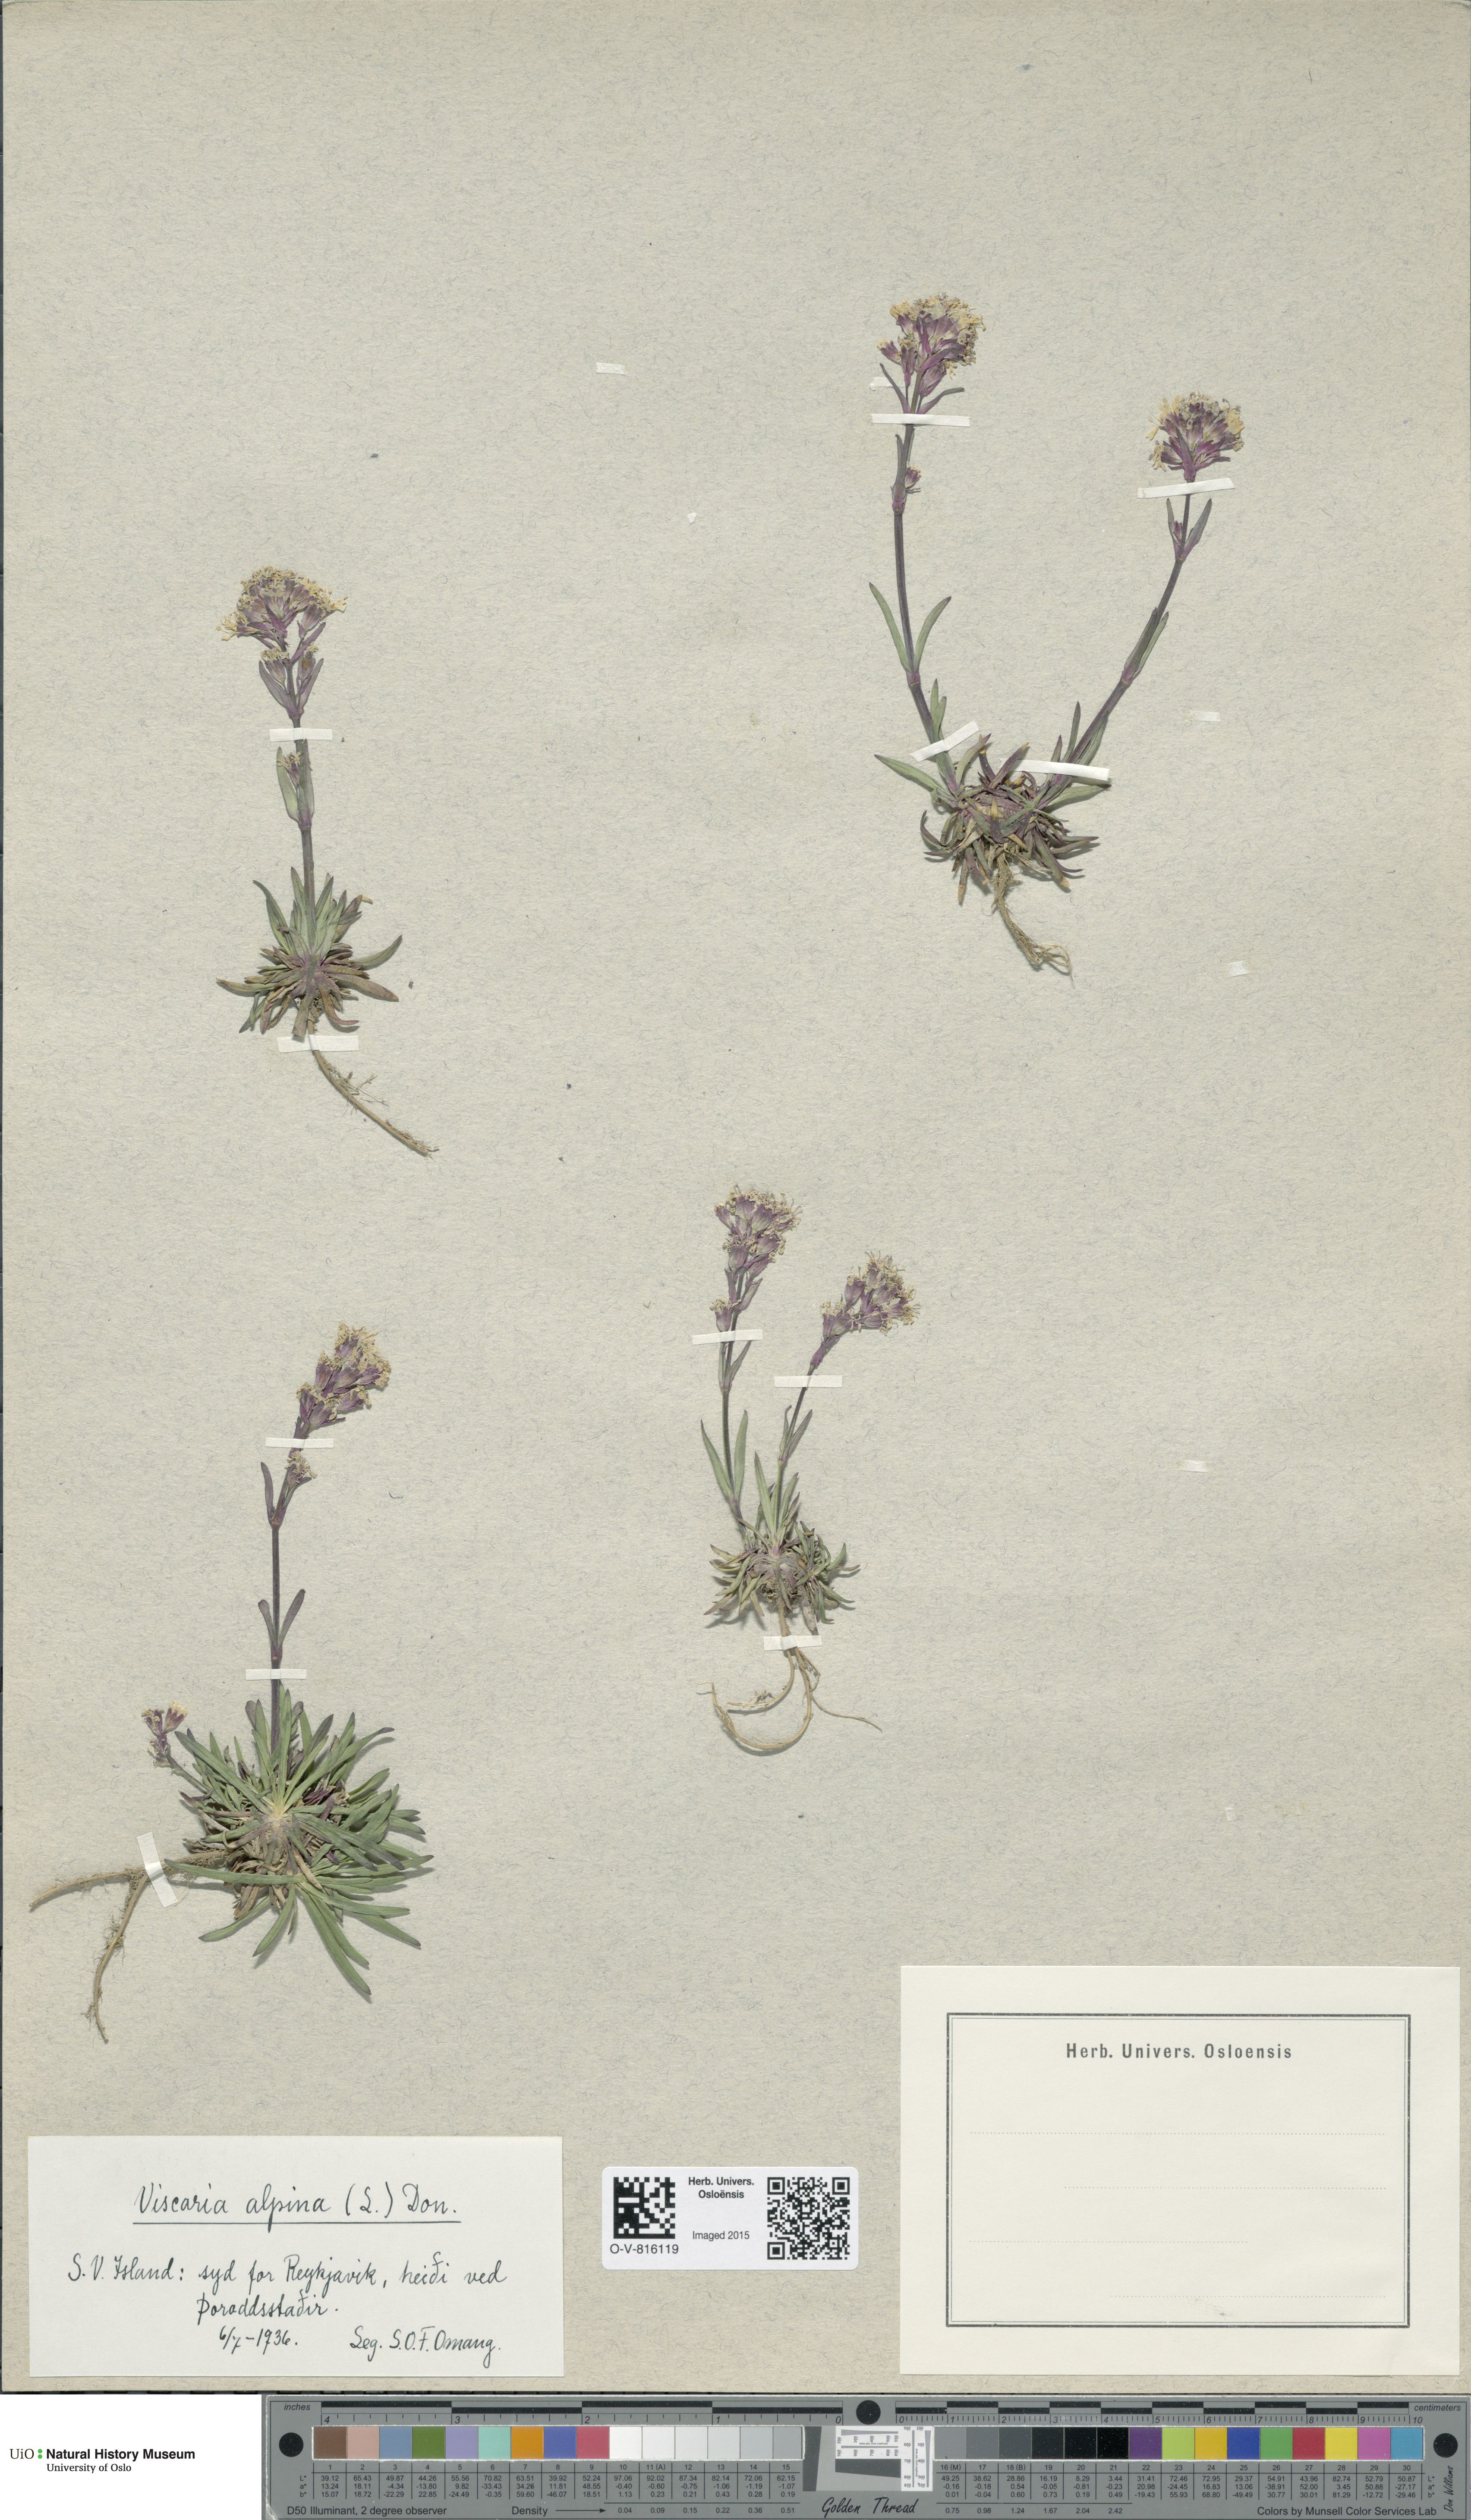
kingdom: Plantae
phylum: Tracheophyta
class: Magnoliopsida
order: Caryophyllales
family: Caryophyllaceae
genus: Viscaria
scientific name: Viscaria alpina
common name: Alpine campion
